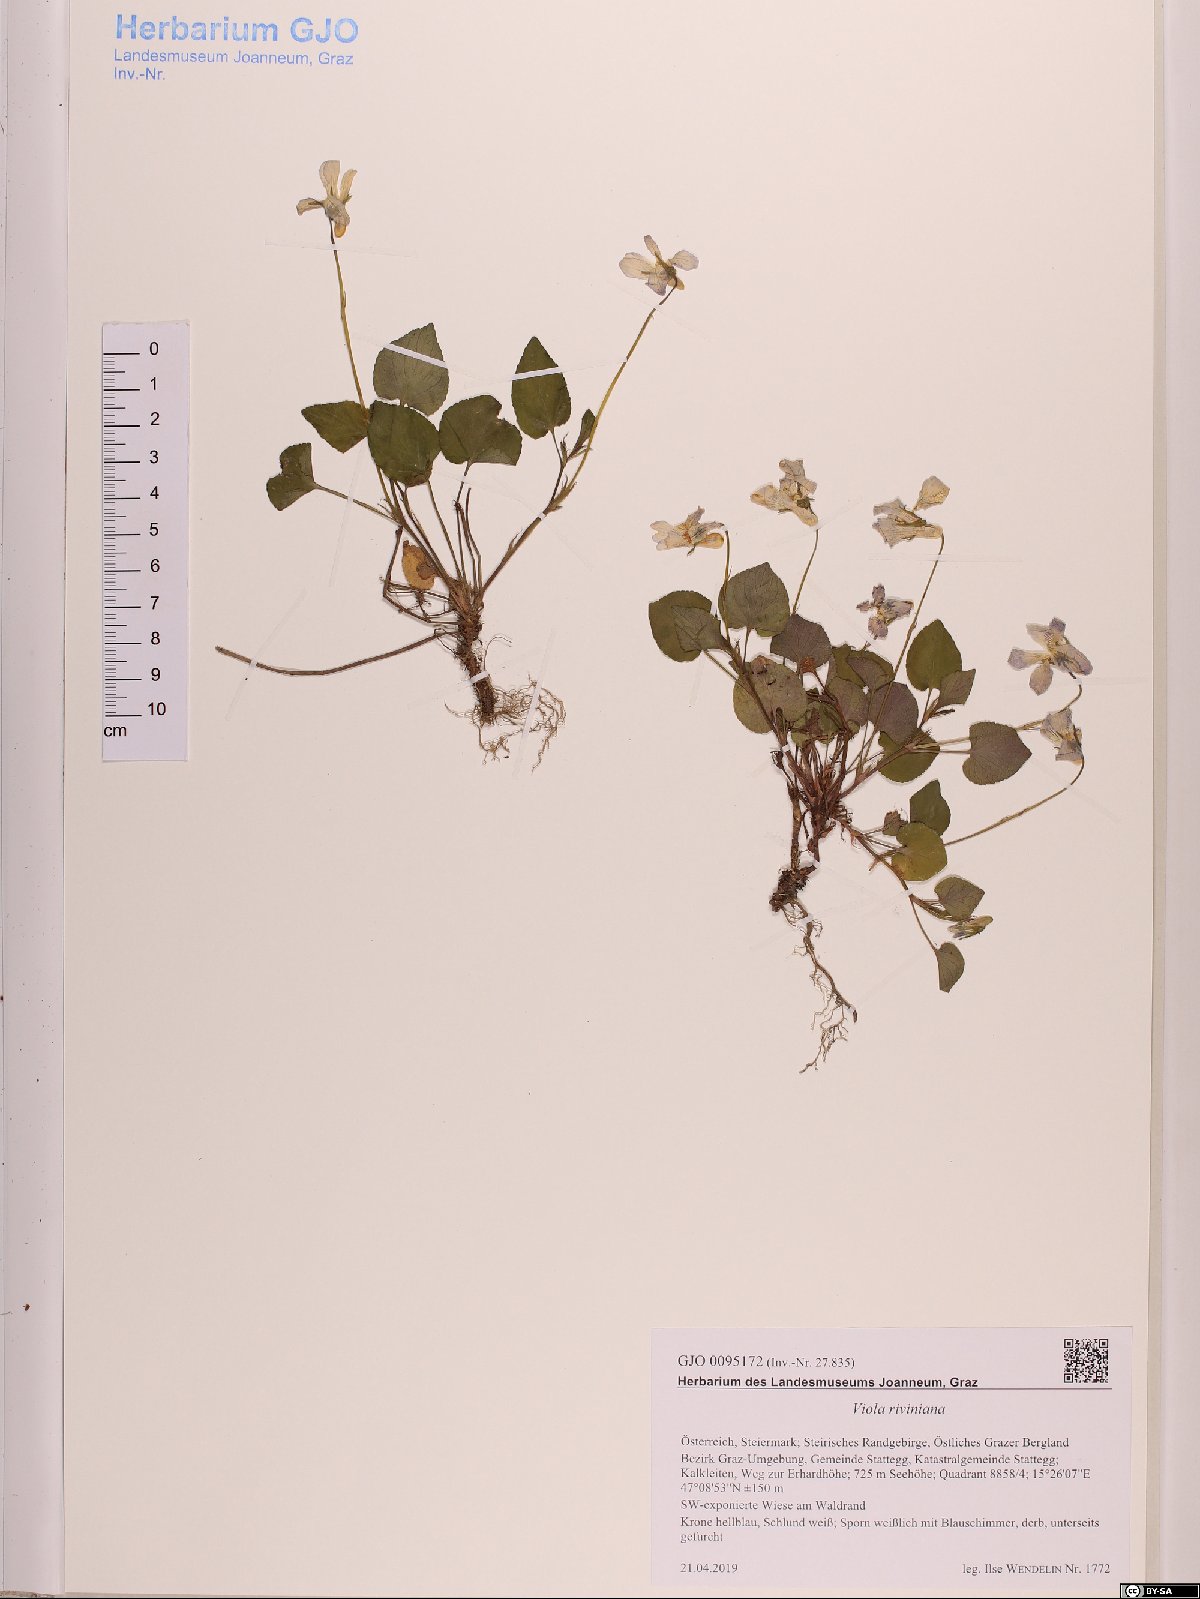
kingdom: Plantae
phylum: Tracheophyta
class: Magnoliopsida
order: Malpighiales
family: Violaceae
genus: Viola
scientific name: Viola riviniana
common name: Common dog-violet
